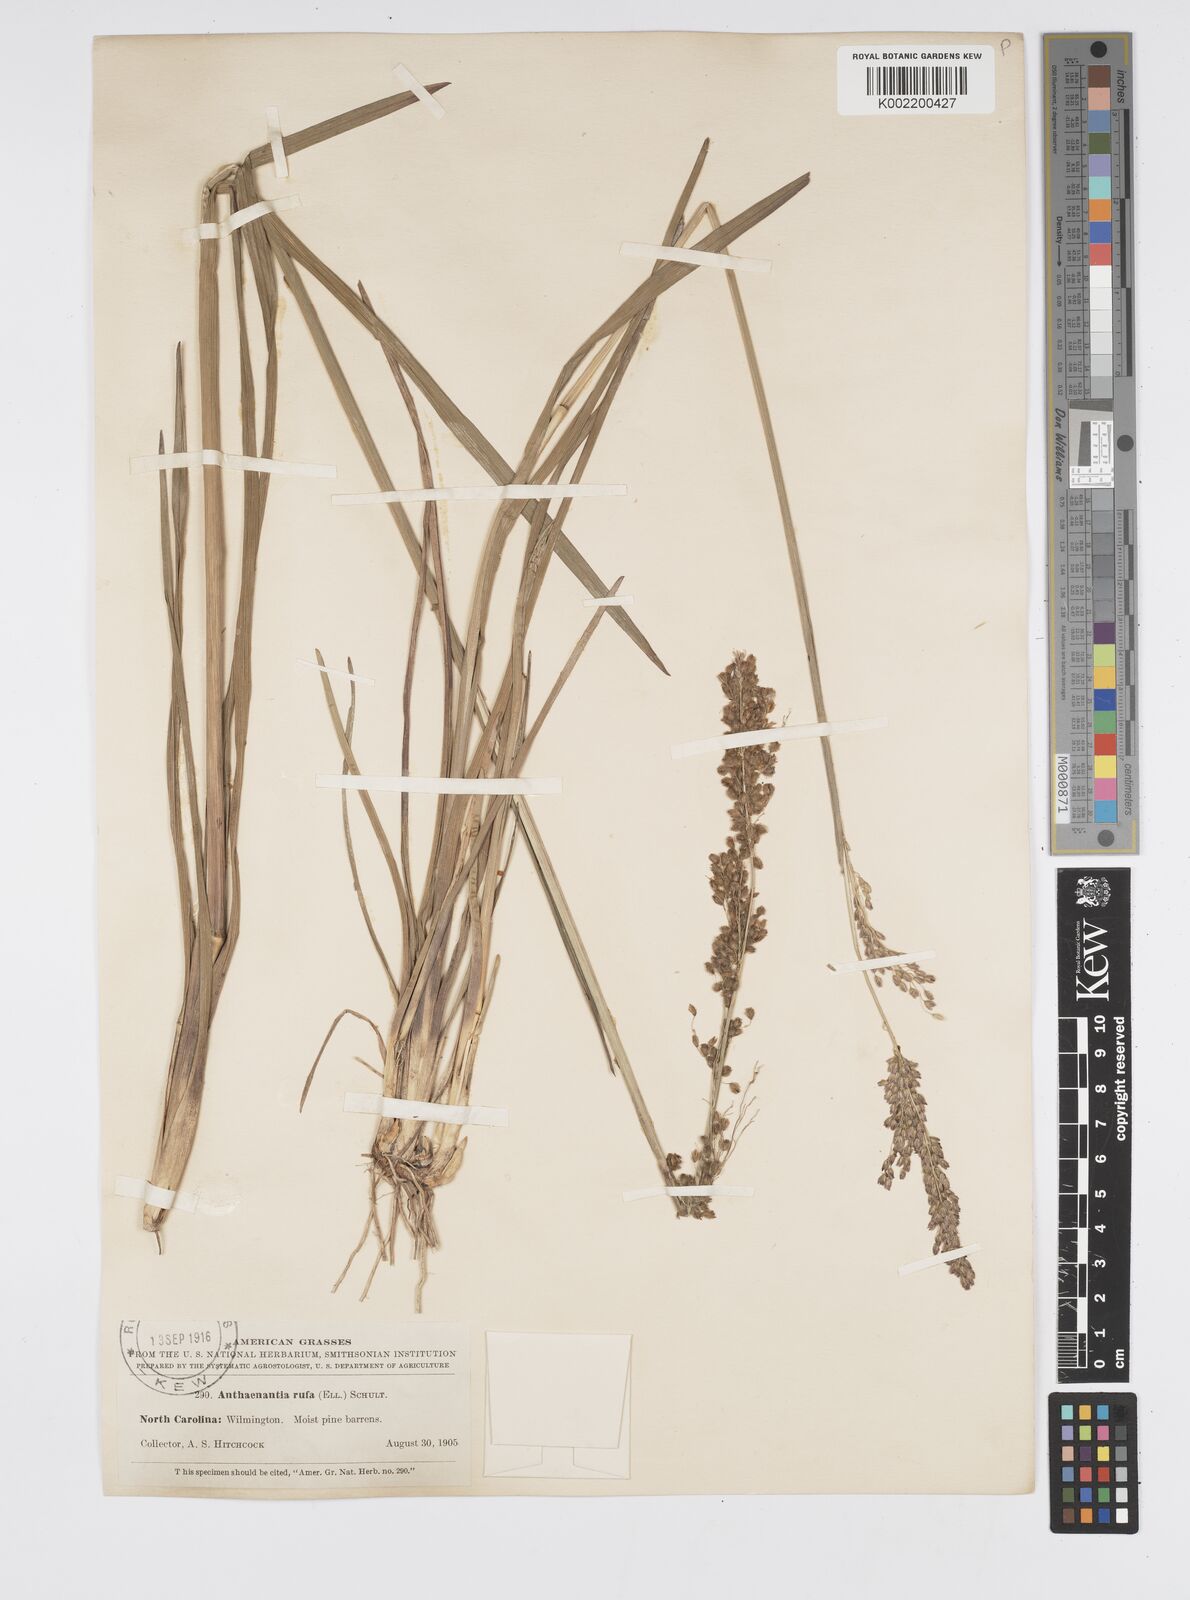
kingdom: Plantae
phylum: Tracheophyta
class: Liliopsida
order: Poales
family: Poaceae
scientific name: Poaceae
